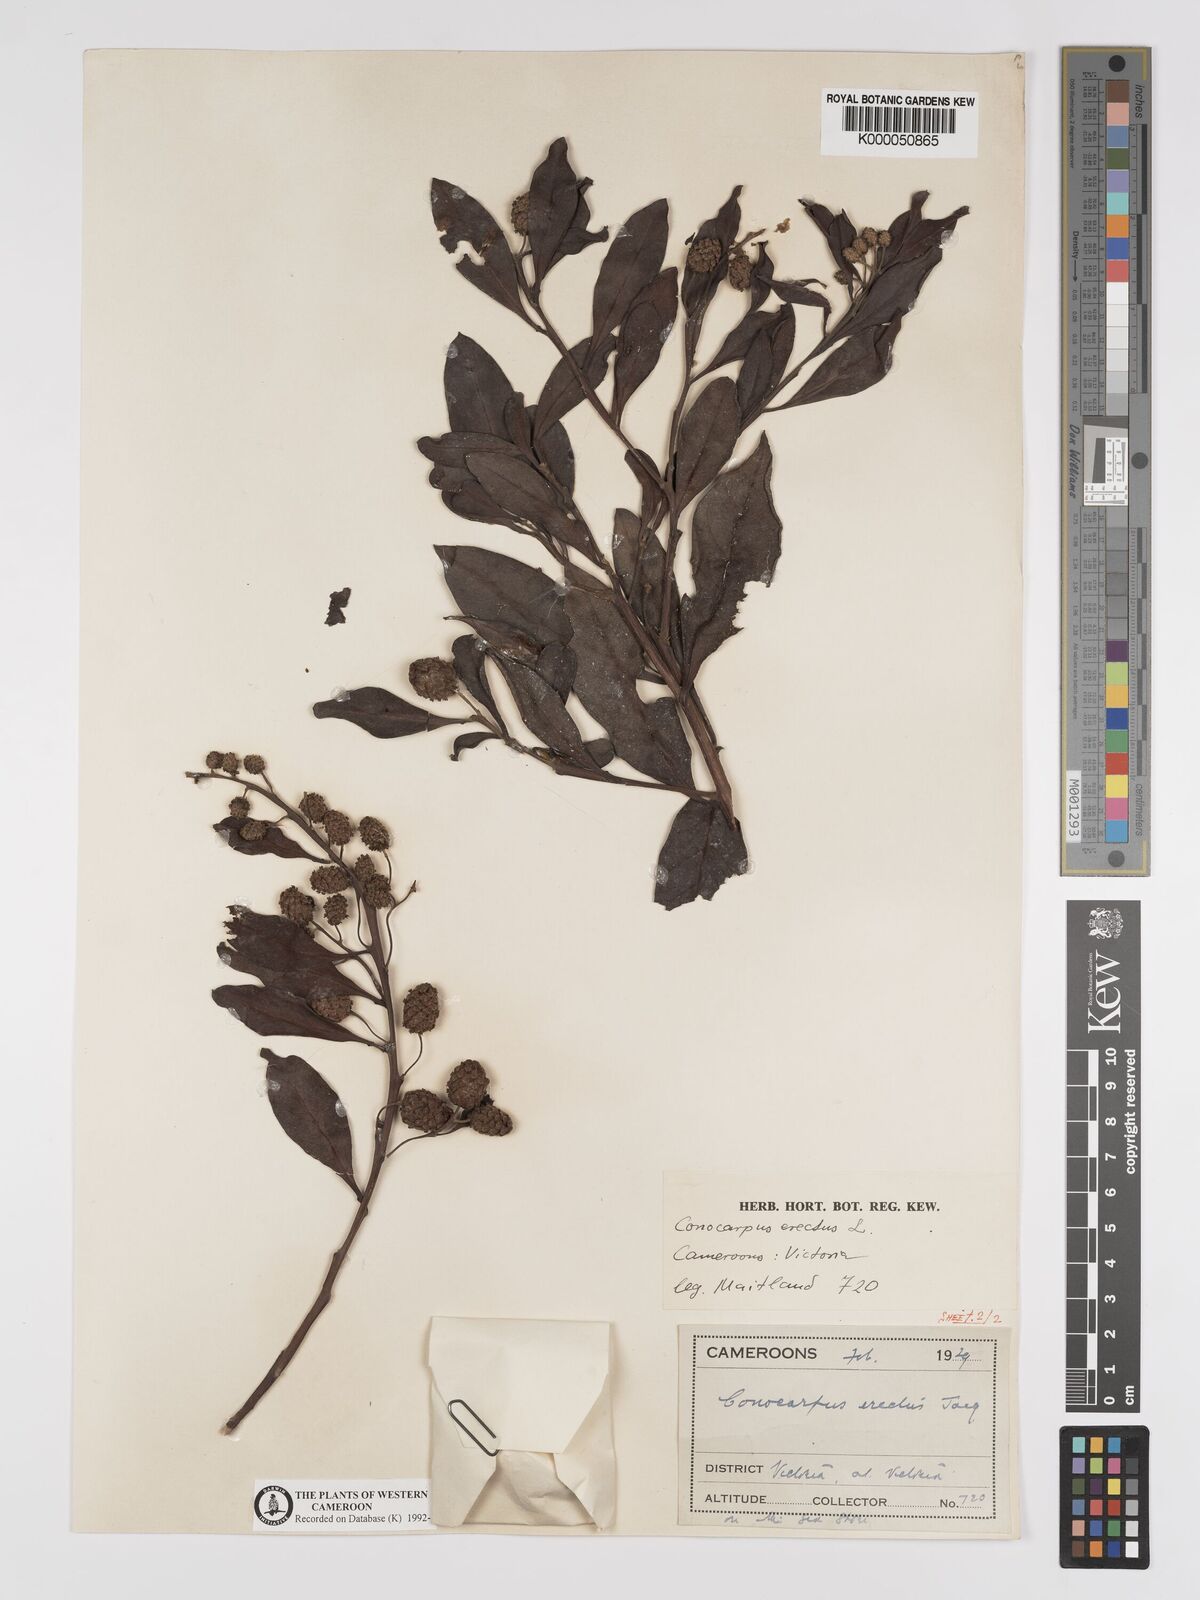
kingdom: Plantae
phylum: Tracheophyta
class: Magnoliopsida
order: Myrtales
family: Combretaceae
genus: Conocarpus
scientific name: Conocarpus erectus
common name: Button mangrove
